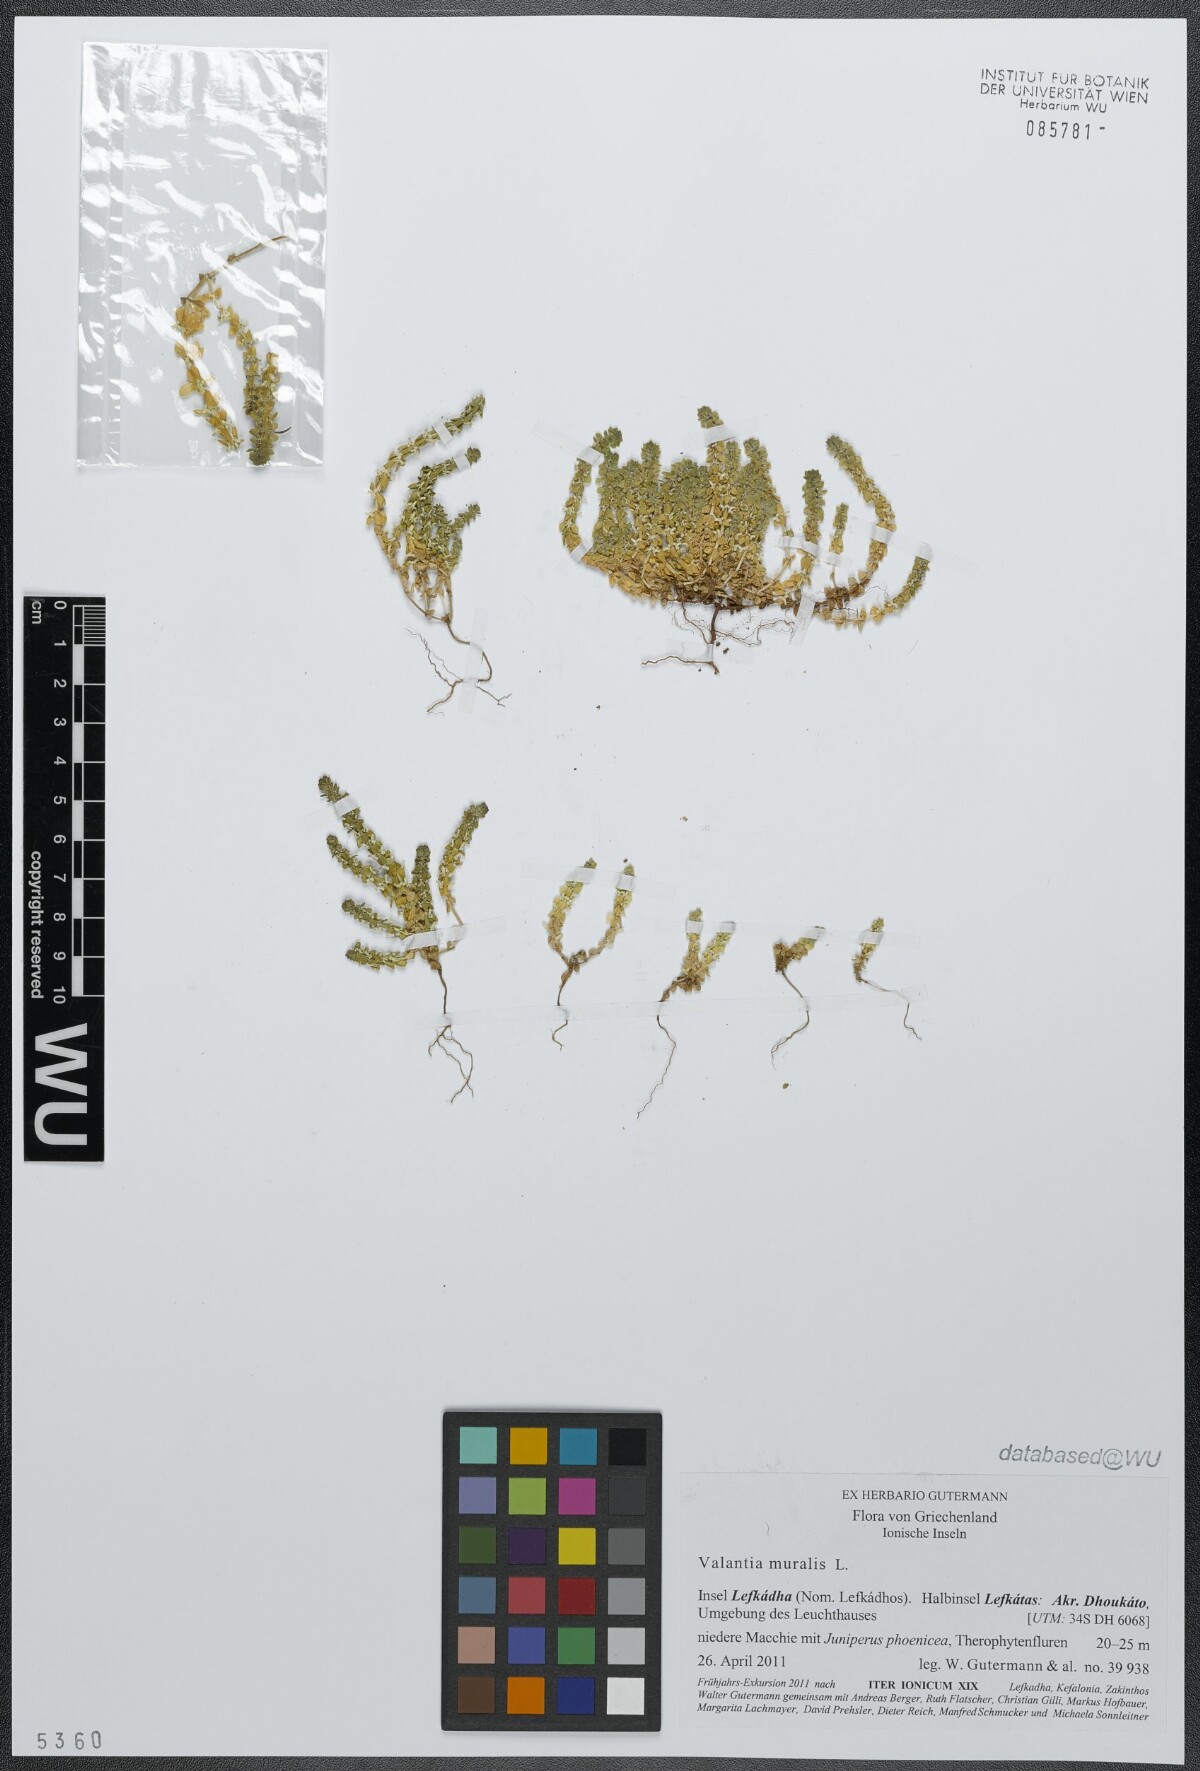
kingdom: Plantae
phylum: Tracheophyta
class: Magnoliopsida
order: Gentianales
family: Rubiaceae
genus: Valantia
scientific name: Valantia muralis
